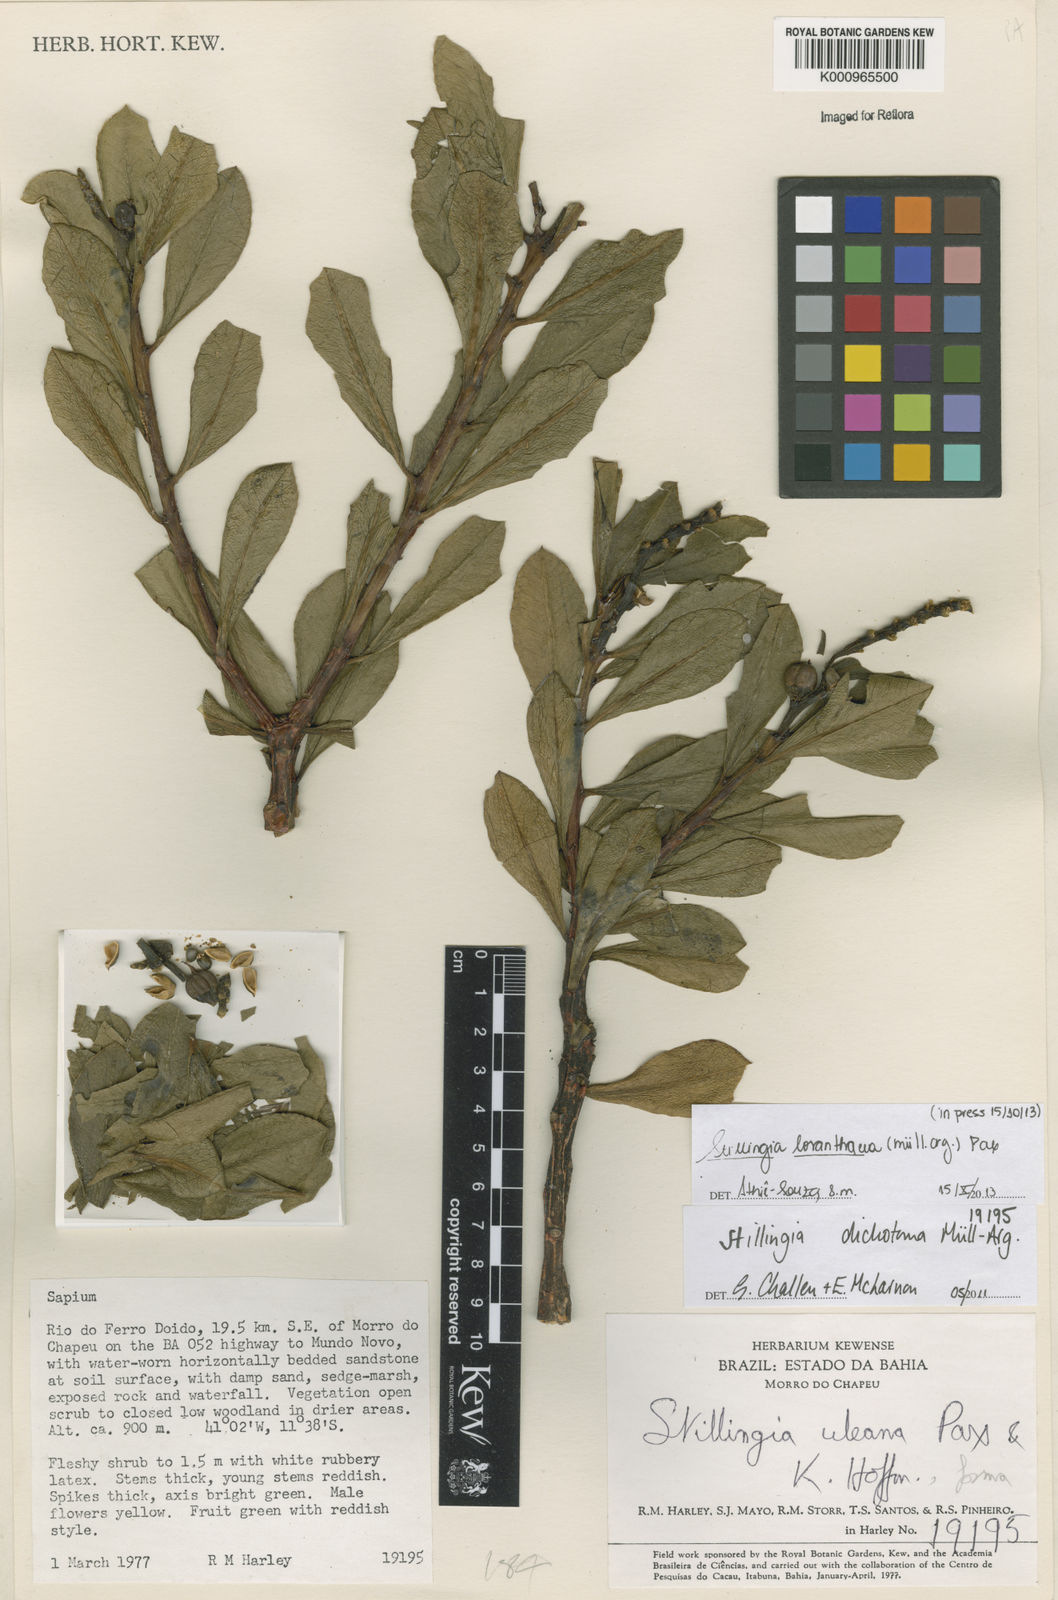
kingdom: Plantae
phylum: Tracheophyta
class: Magnoliopsida
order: Malpighiales
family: Euphorbiaceae
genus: Stillingia
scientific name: Stillingia saxatilis
